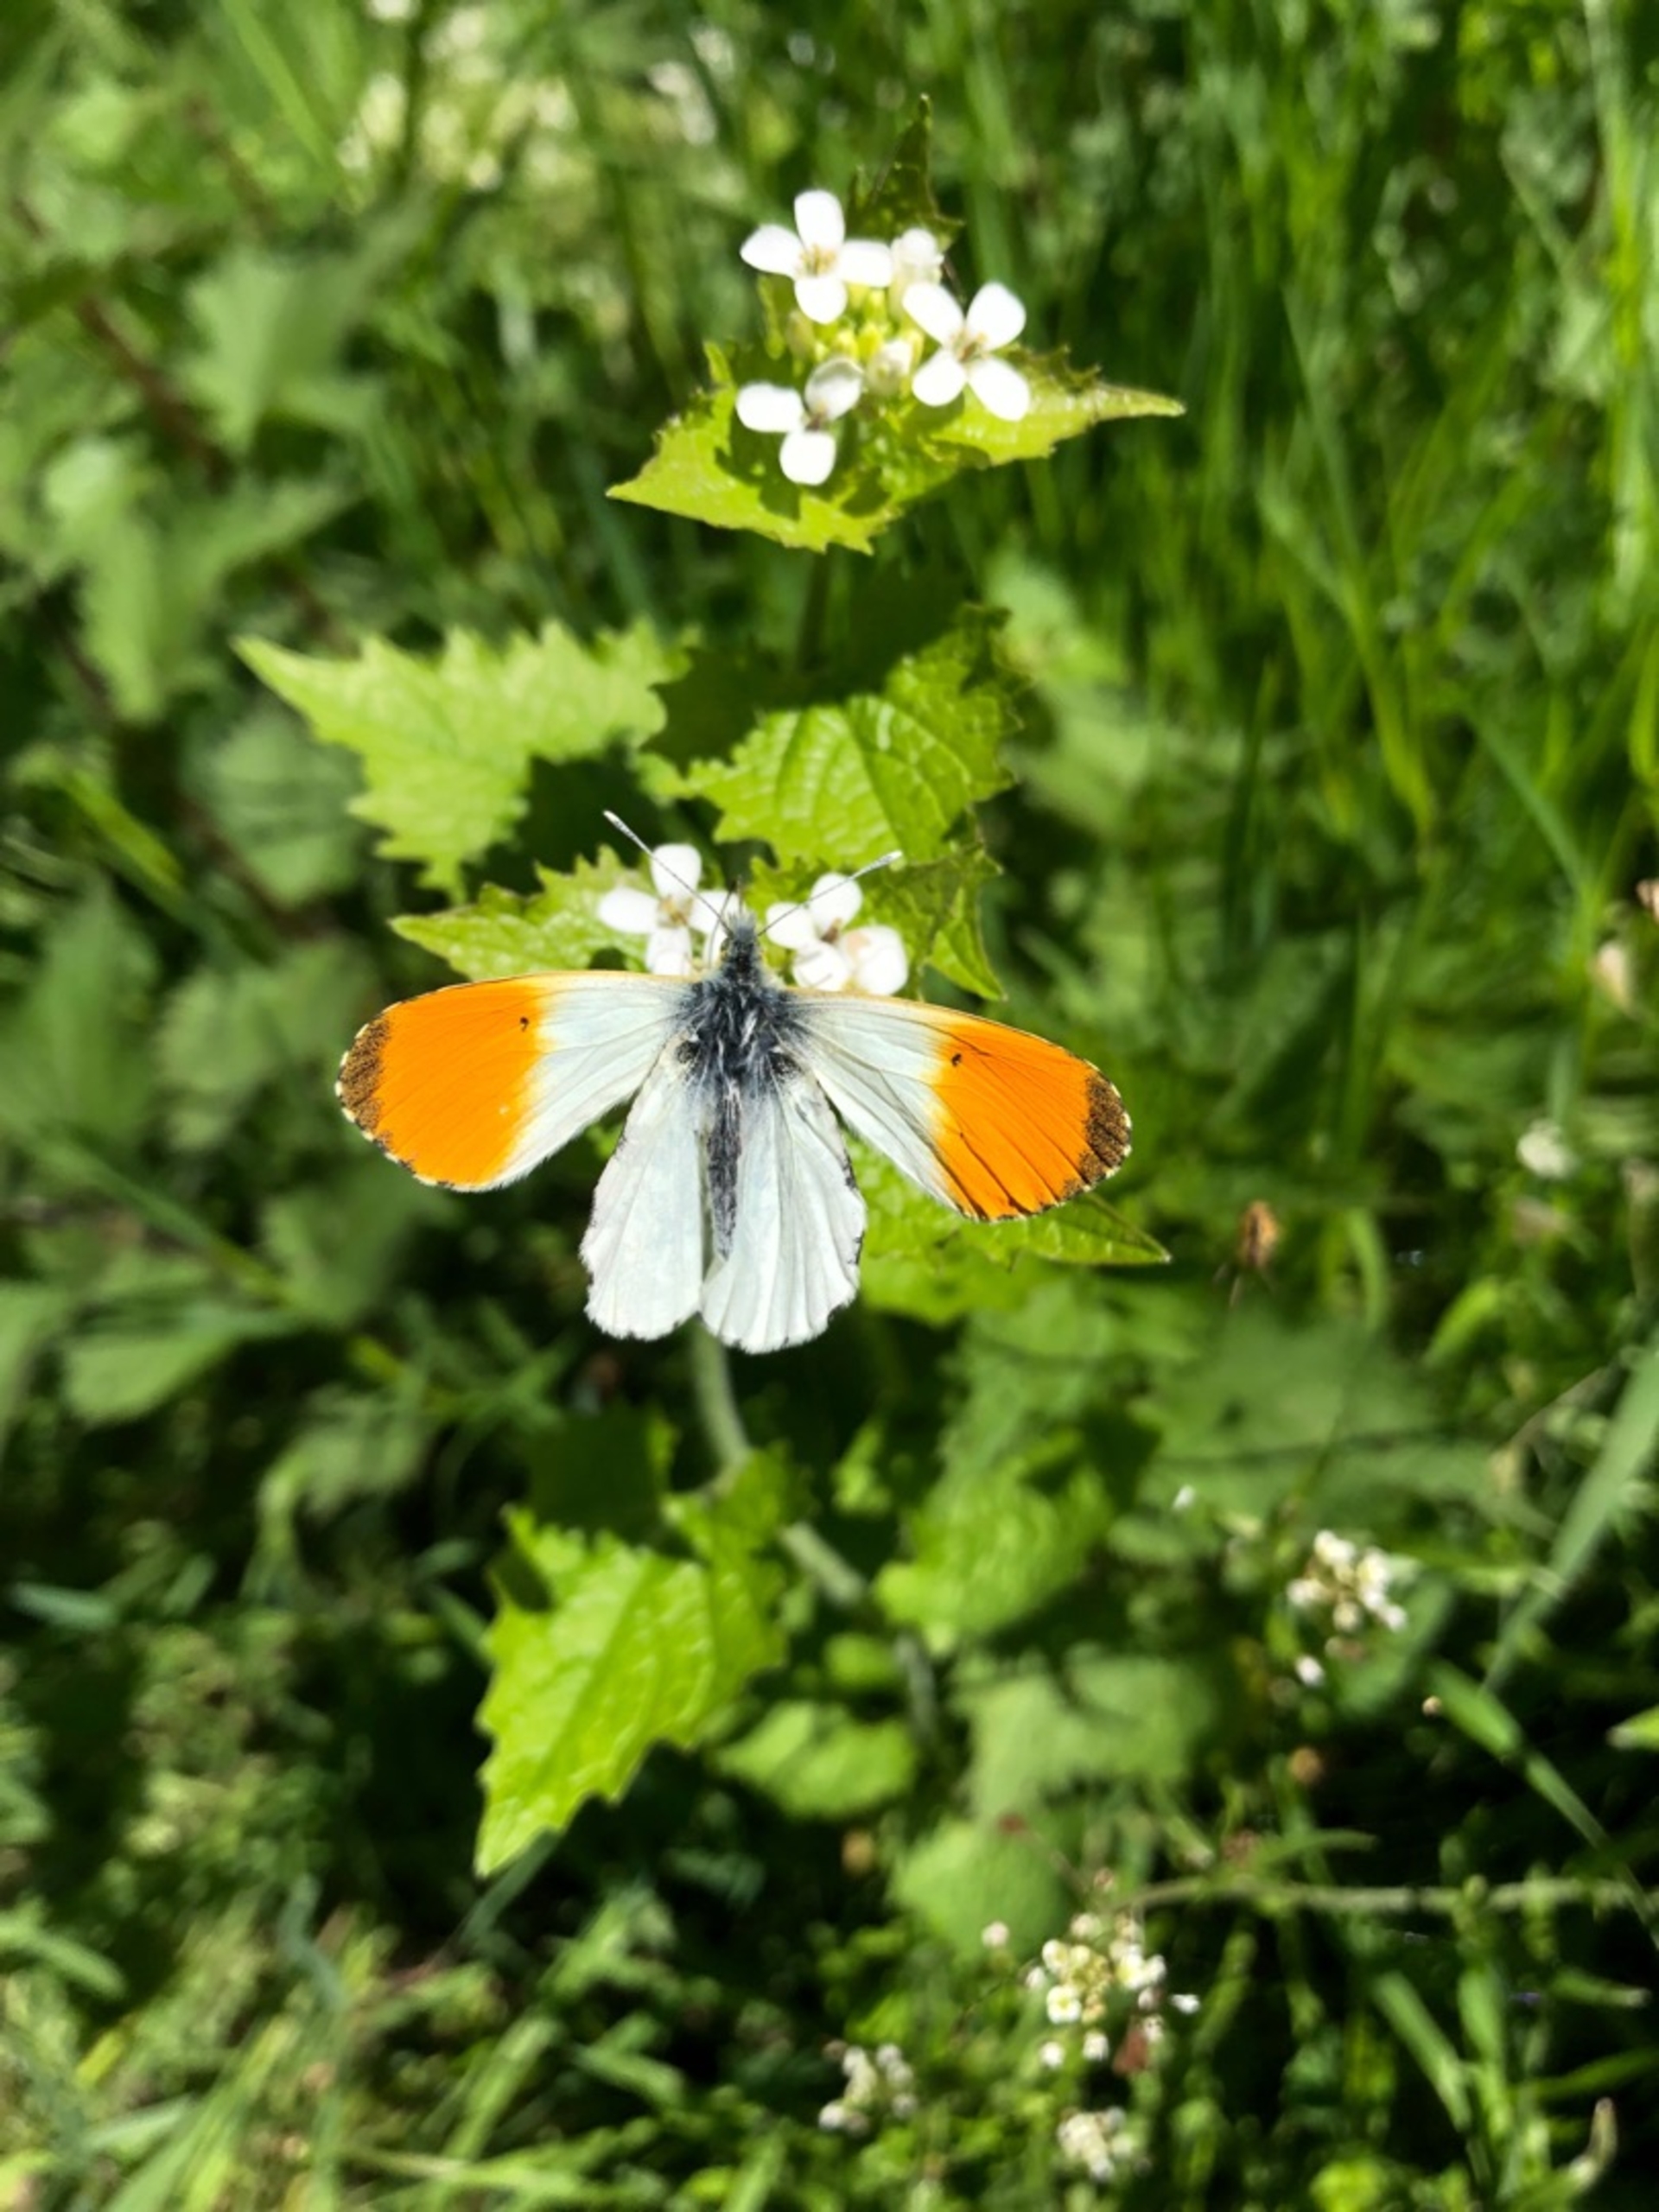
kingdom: Animalia
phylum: Arthropoda
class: Insecta
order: Lepidoptera
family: Pieridae
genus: Anthocharis
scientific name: Anthocharis cardamines
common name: Aurora
